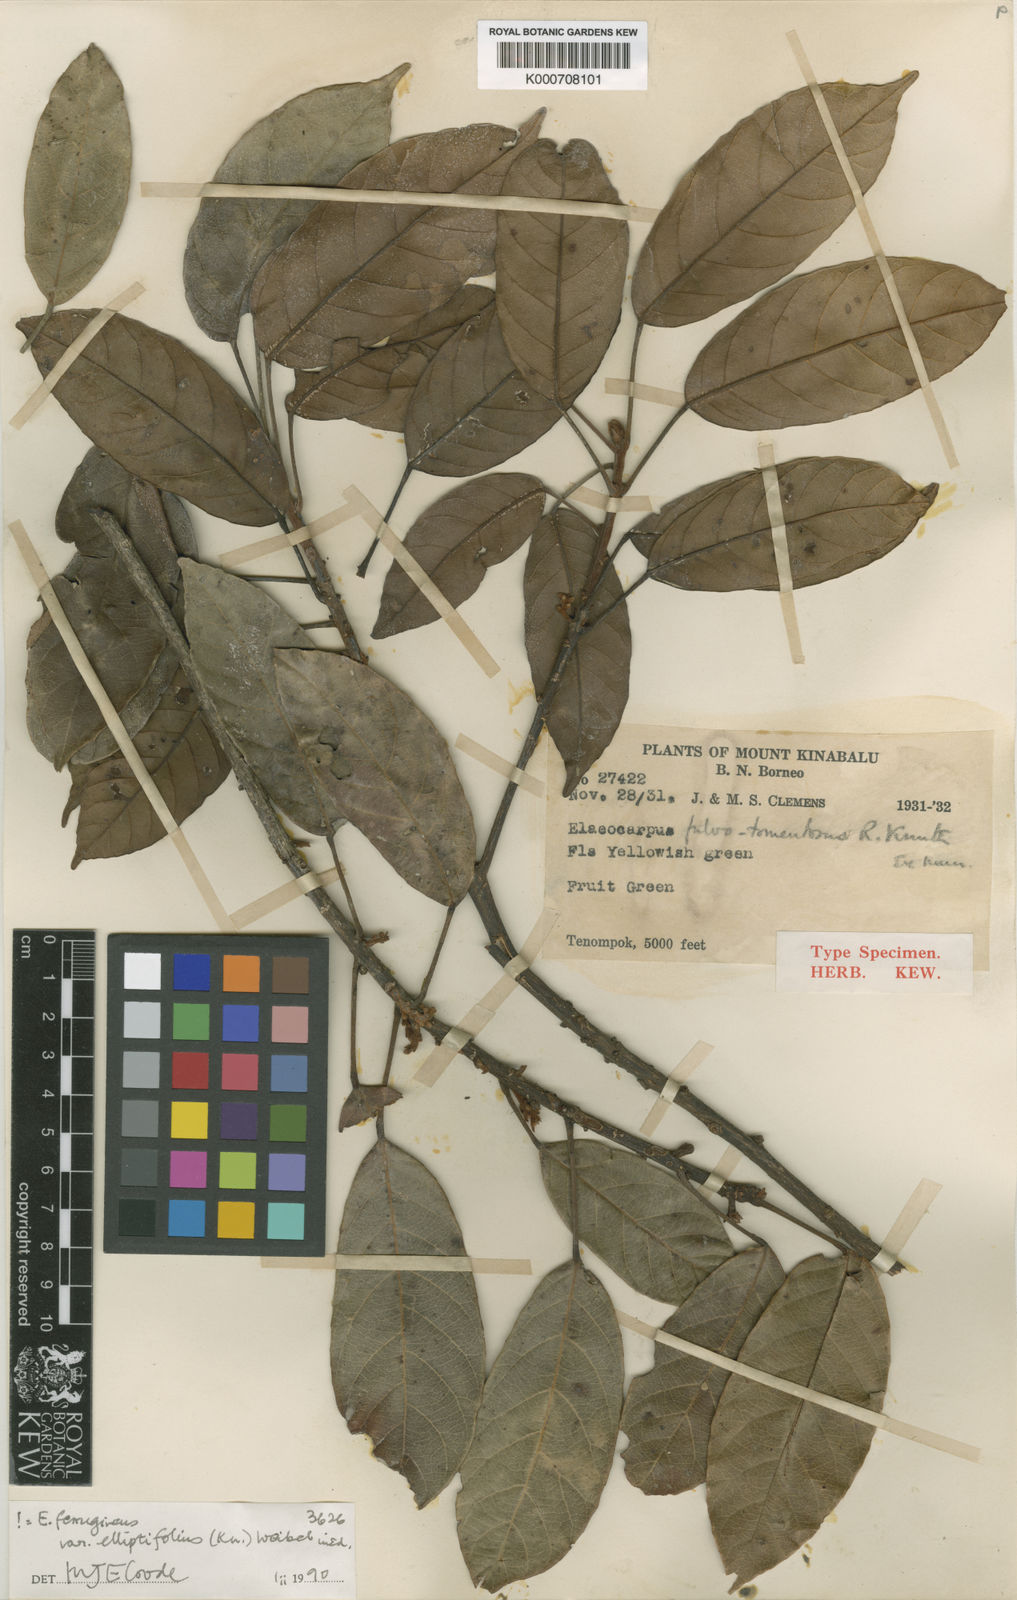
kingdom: Plantae
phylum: Tracheophyta
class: Magnoliopsida
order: Oxalidales
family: Elaeocarpaceae
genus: Elaeocarpus
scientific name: Elaeocarpus ferrugineus
